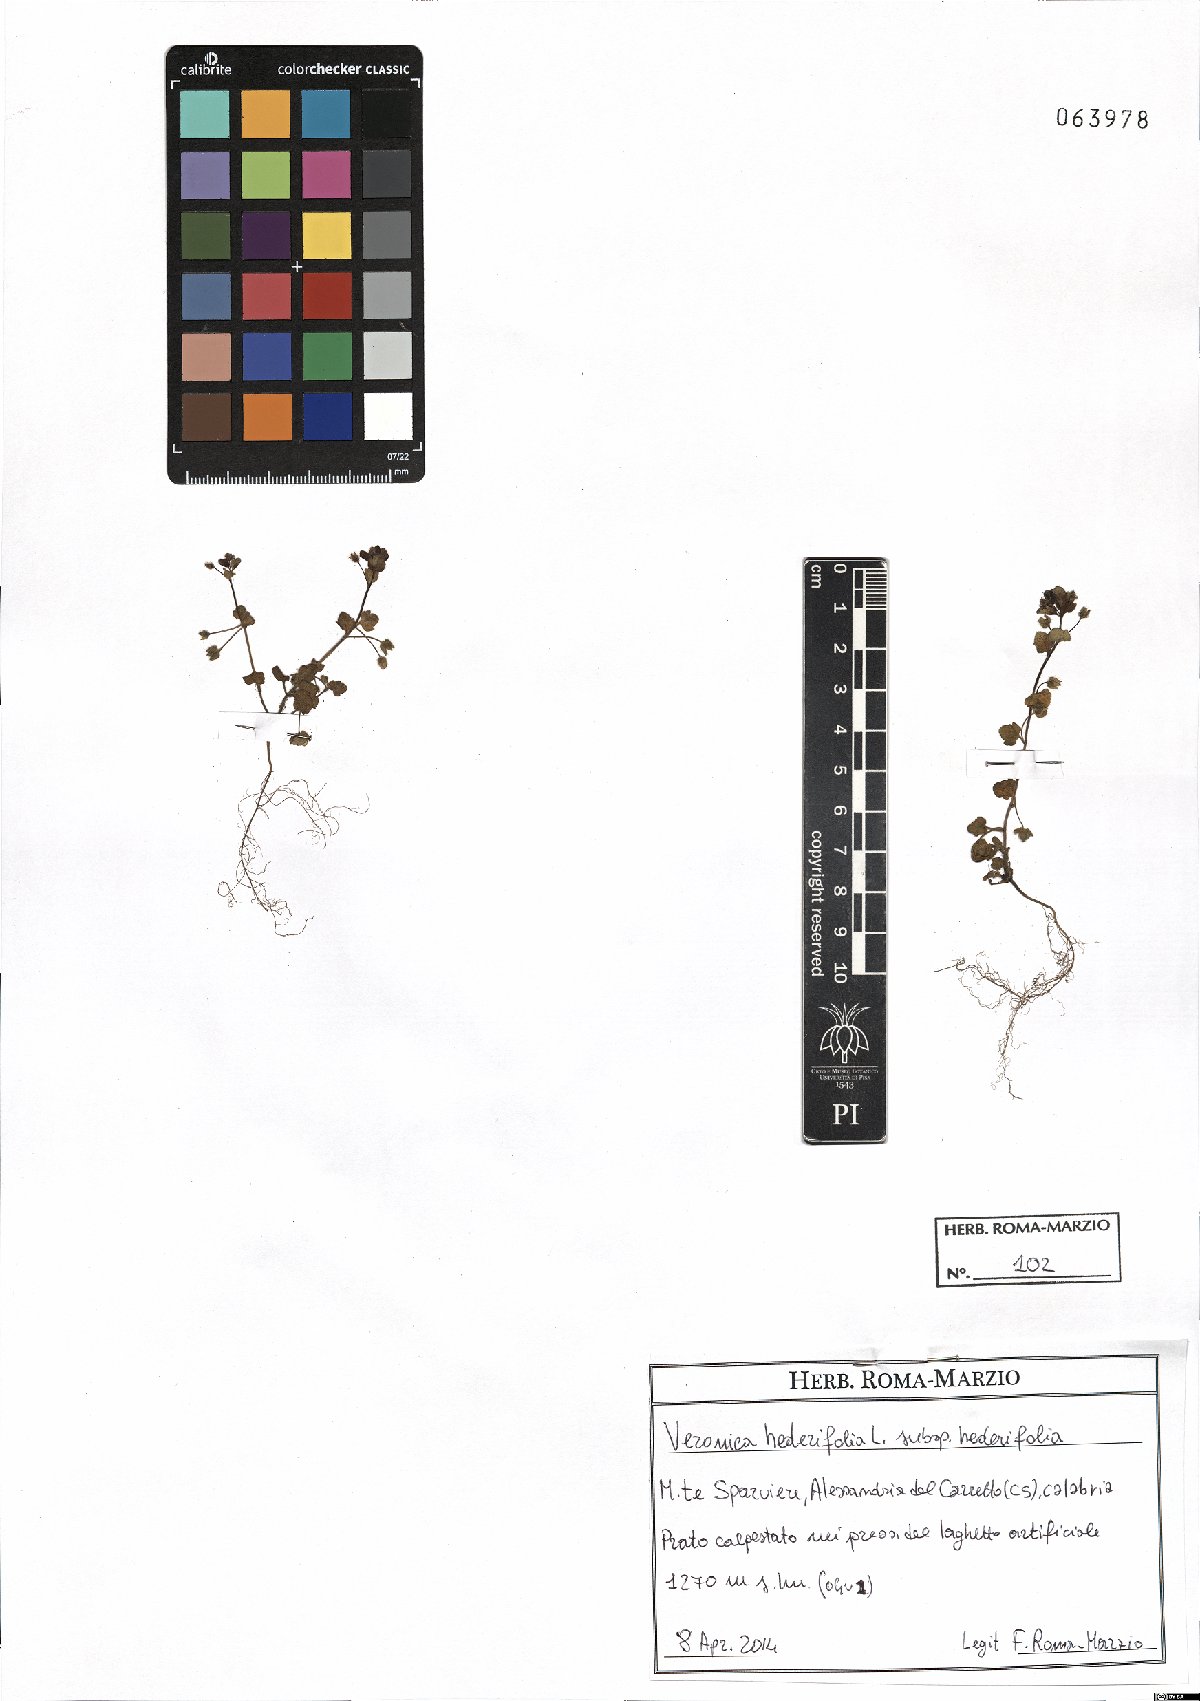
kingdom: Plantae
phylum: Tracheophyta
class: Magnoliopsida
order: Lamiales
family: Plantaginaceae
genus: Veronica
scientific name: Veronica hederifolia
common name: Ivy-leaved speedwell
